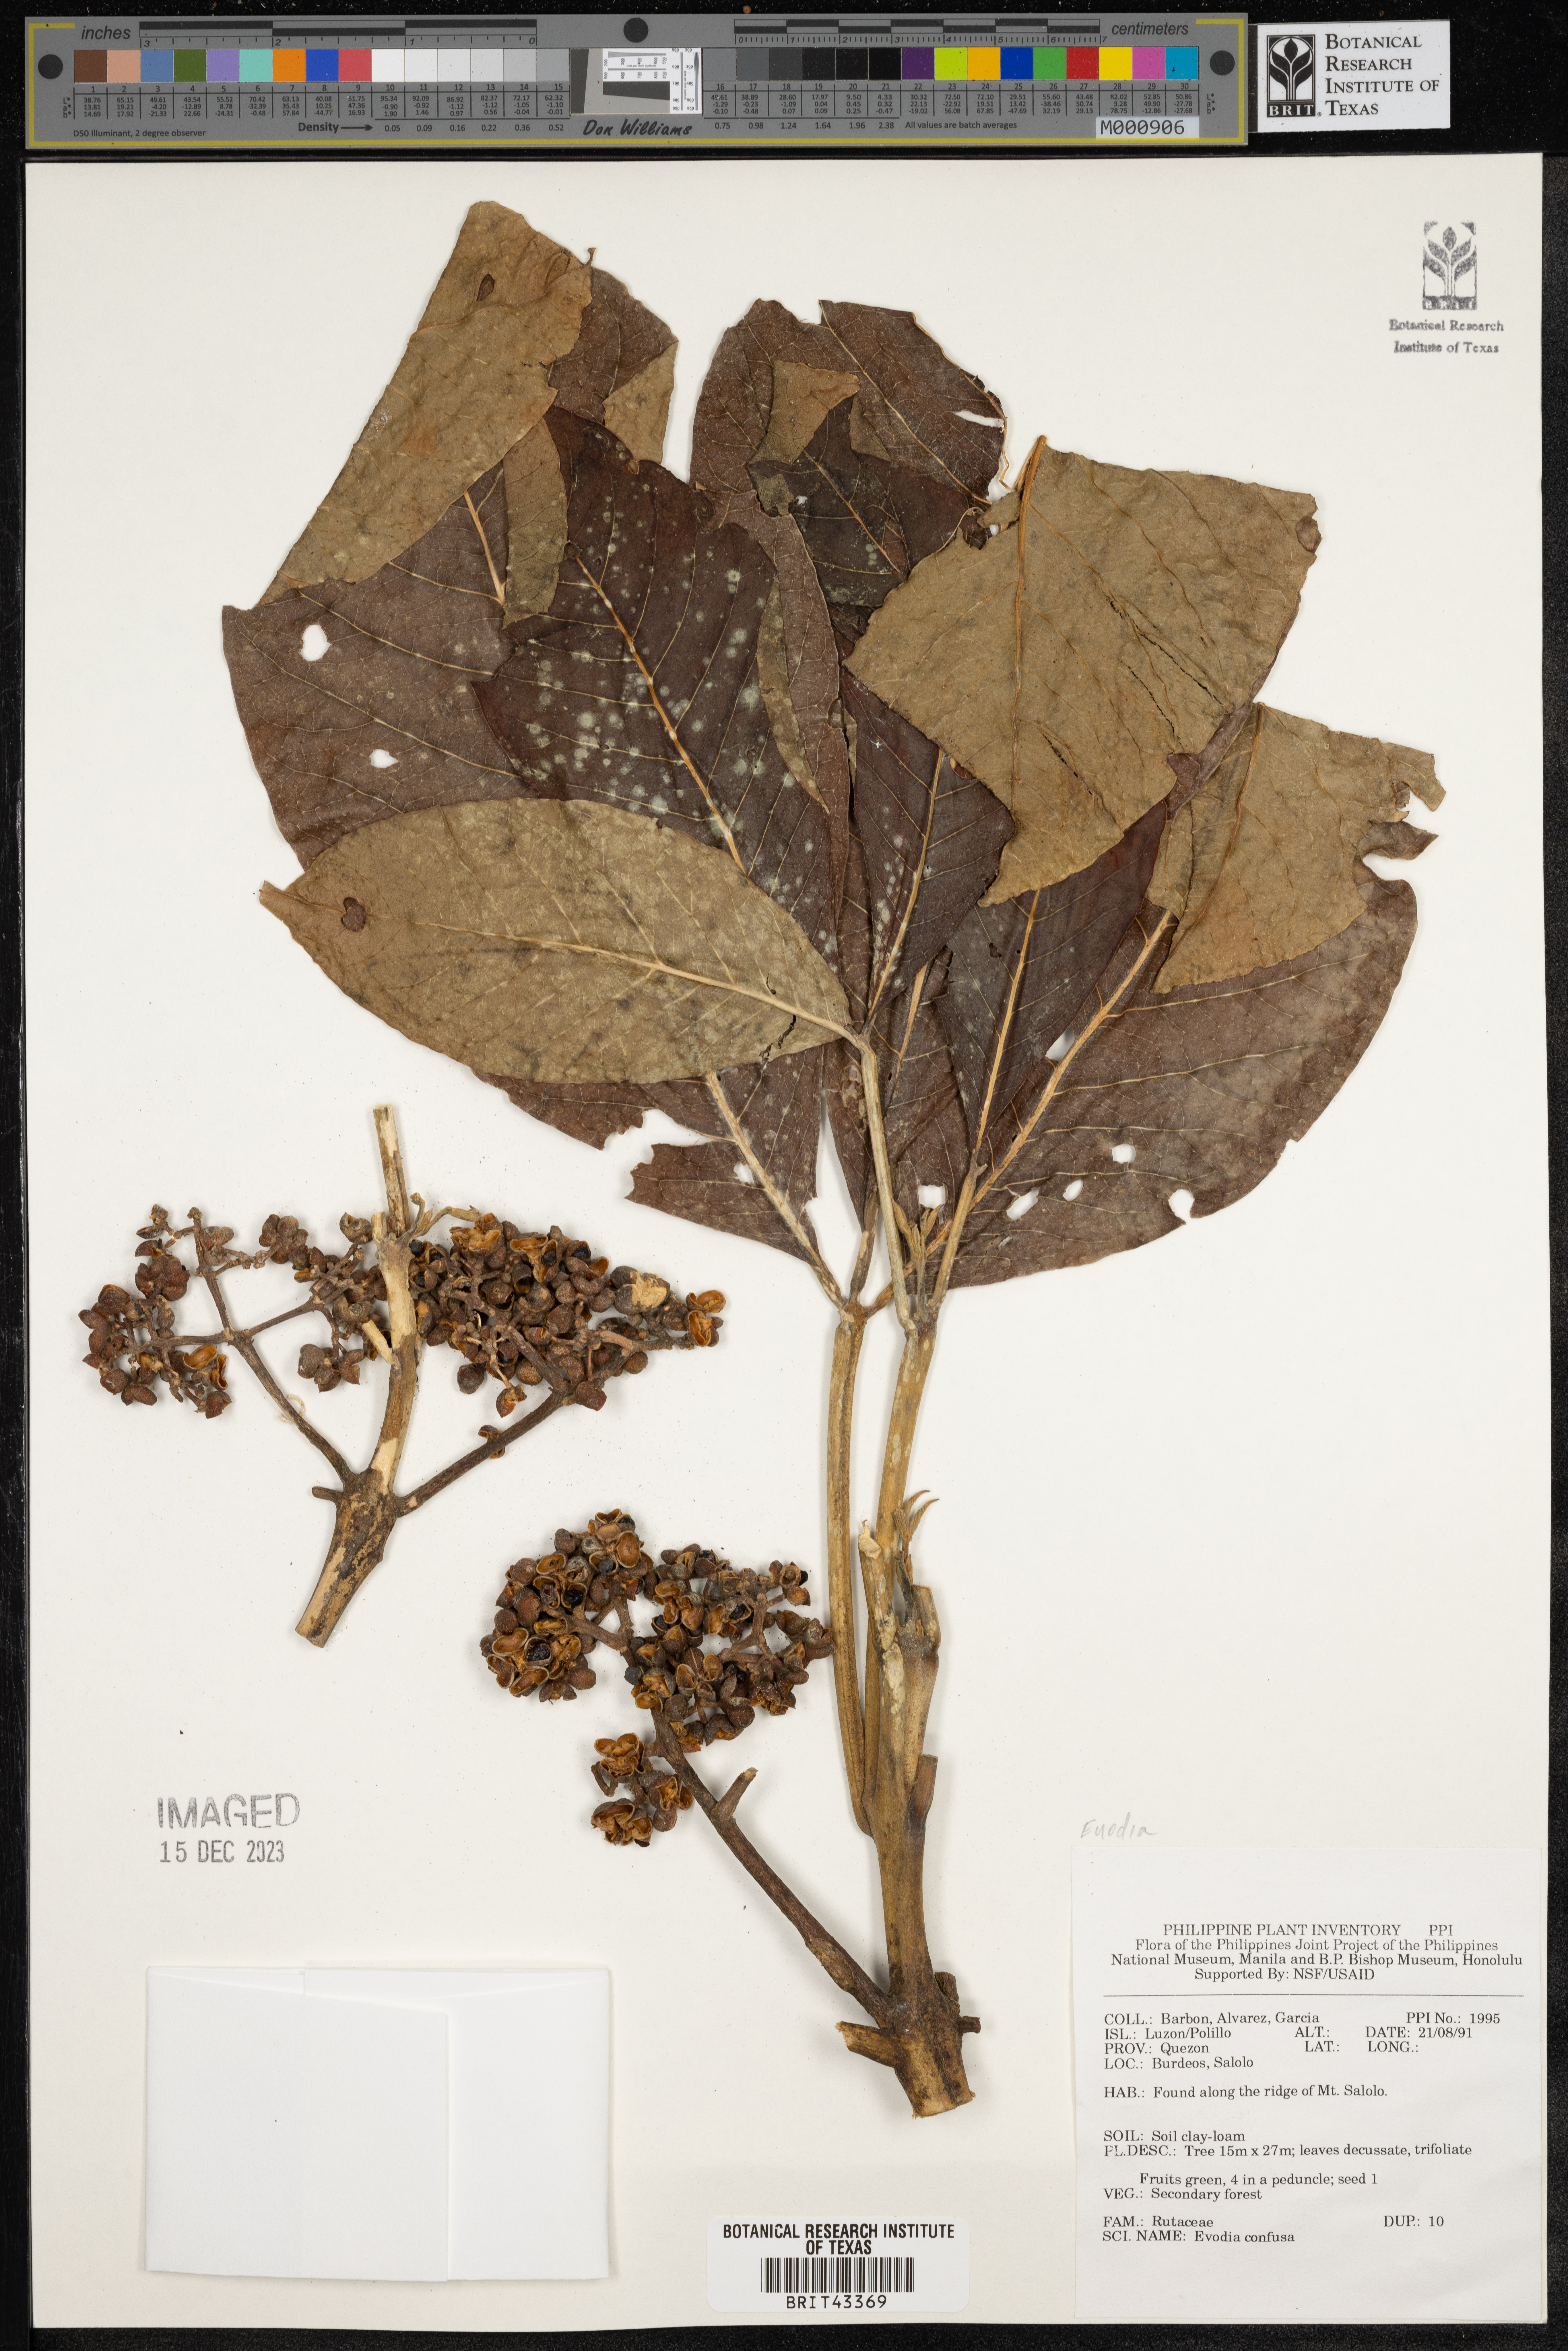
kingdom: Plantae
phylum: Tracheophyta
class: Magnoliopsida
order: Sapindales
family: Rutaceae
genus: Melicope
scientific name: Melicope frutescens
